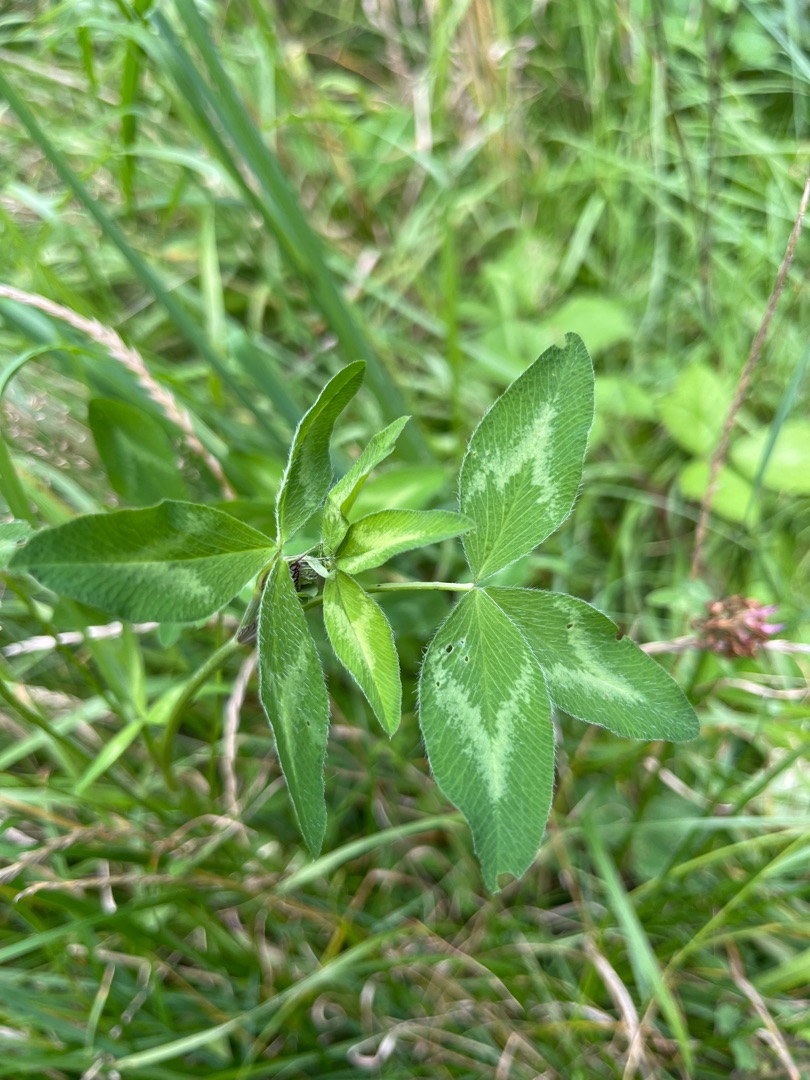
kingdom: Plantae
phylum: Tracheophyta
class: Magnoliopsida
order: Fabales
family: Fabaceae
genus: Trifolium
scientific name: Trifolium pratense
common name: Rød-kløver
